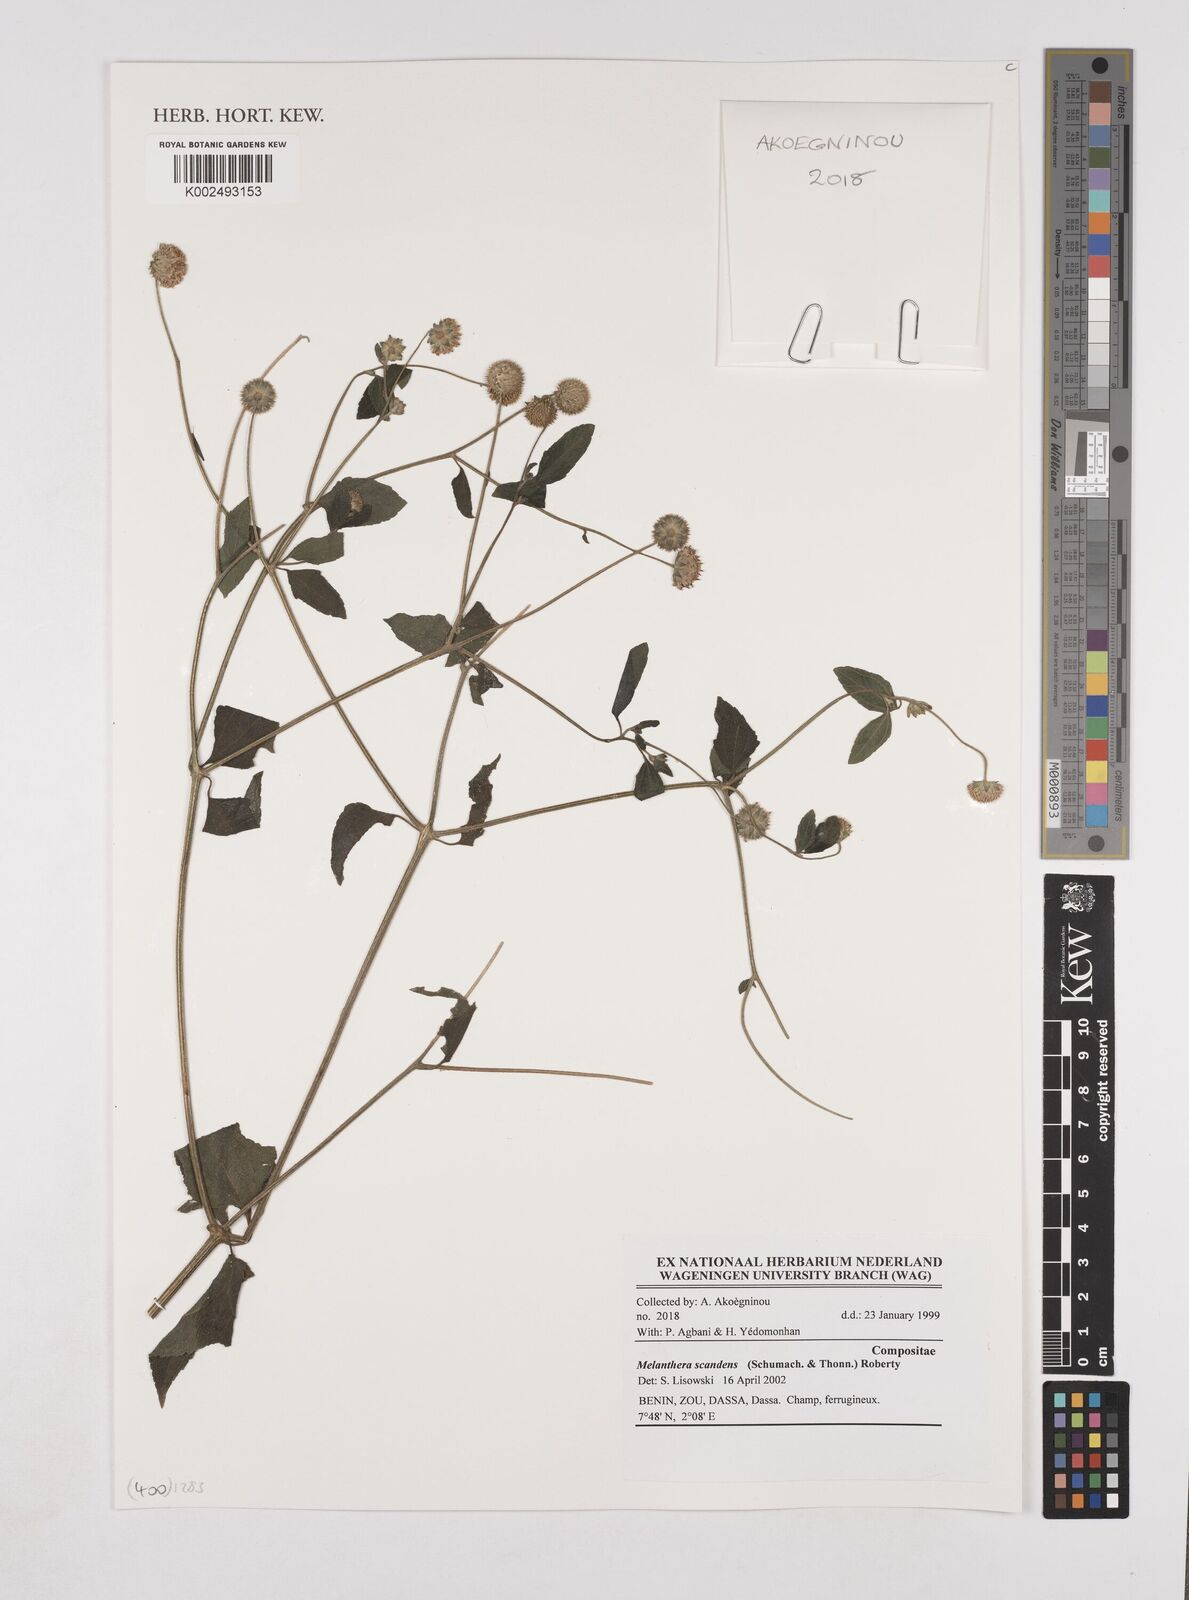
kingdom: Plantae
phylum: Tracheophyta
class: Magnoliopsida
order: Asterales
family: Asteraceae
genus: Lipotriche
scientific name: Lipotriche scandens
